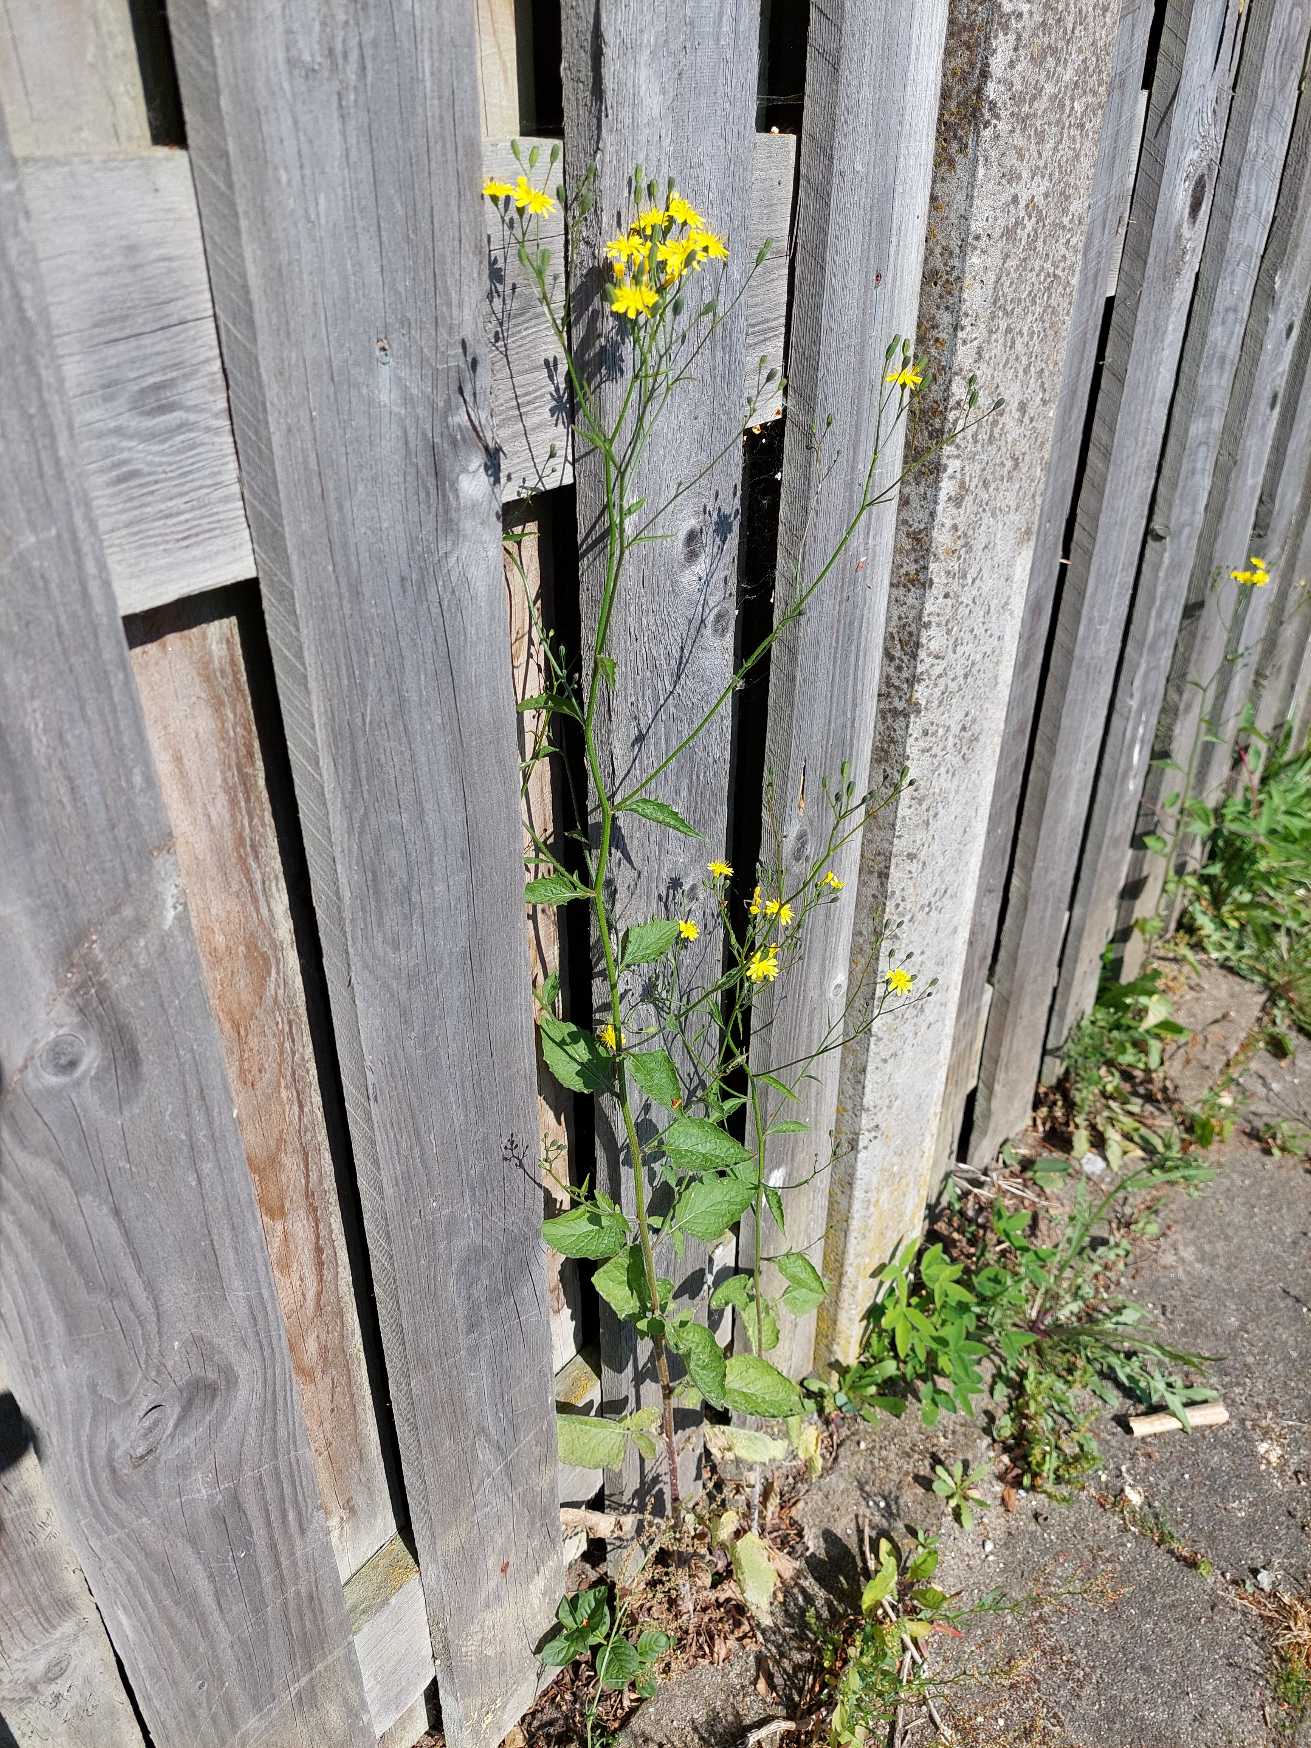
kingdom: Plantae
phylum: Tracheophyta
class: Magnoliopsida
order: Asterales
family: Asteraceae
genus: Lapsana
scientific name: Lapsana communis
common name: Haremad
